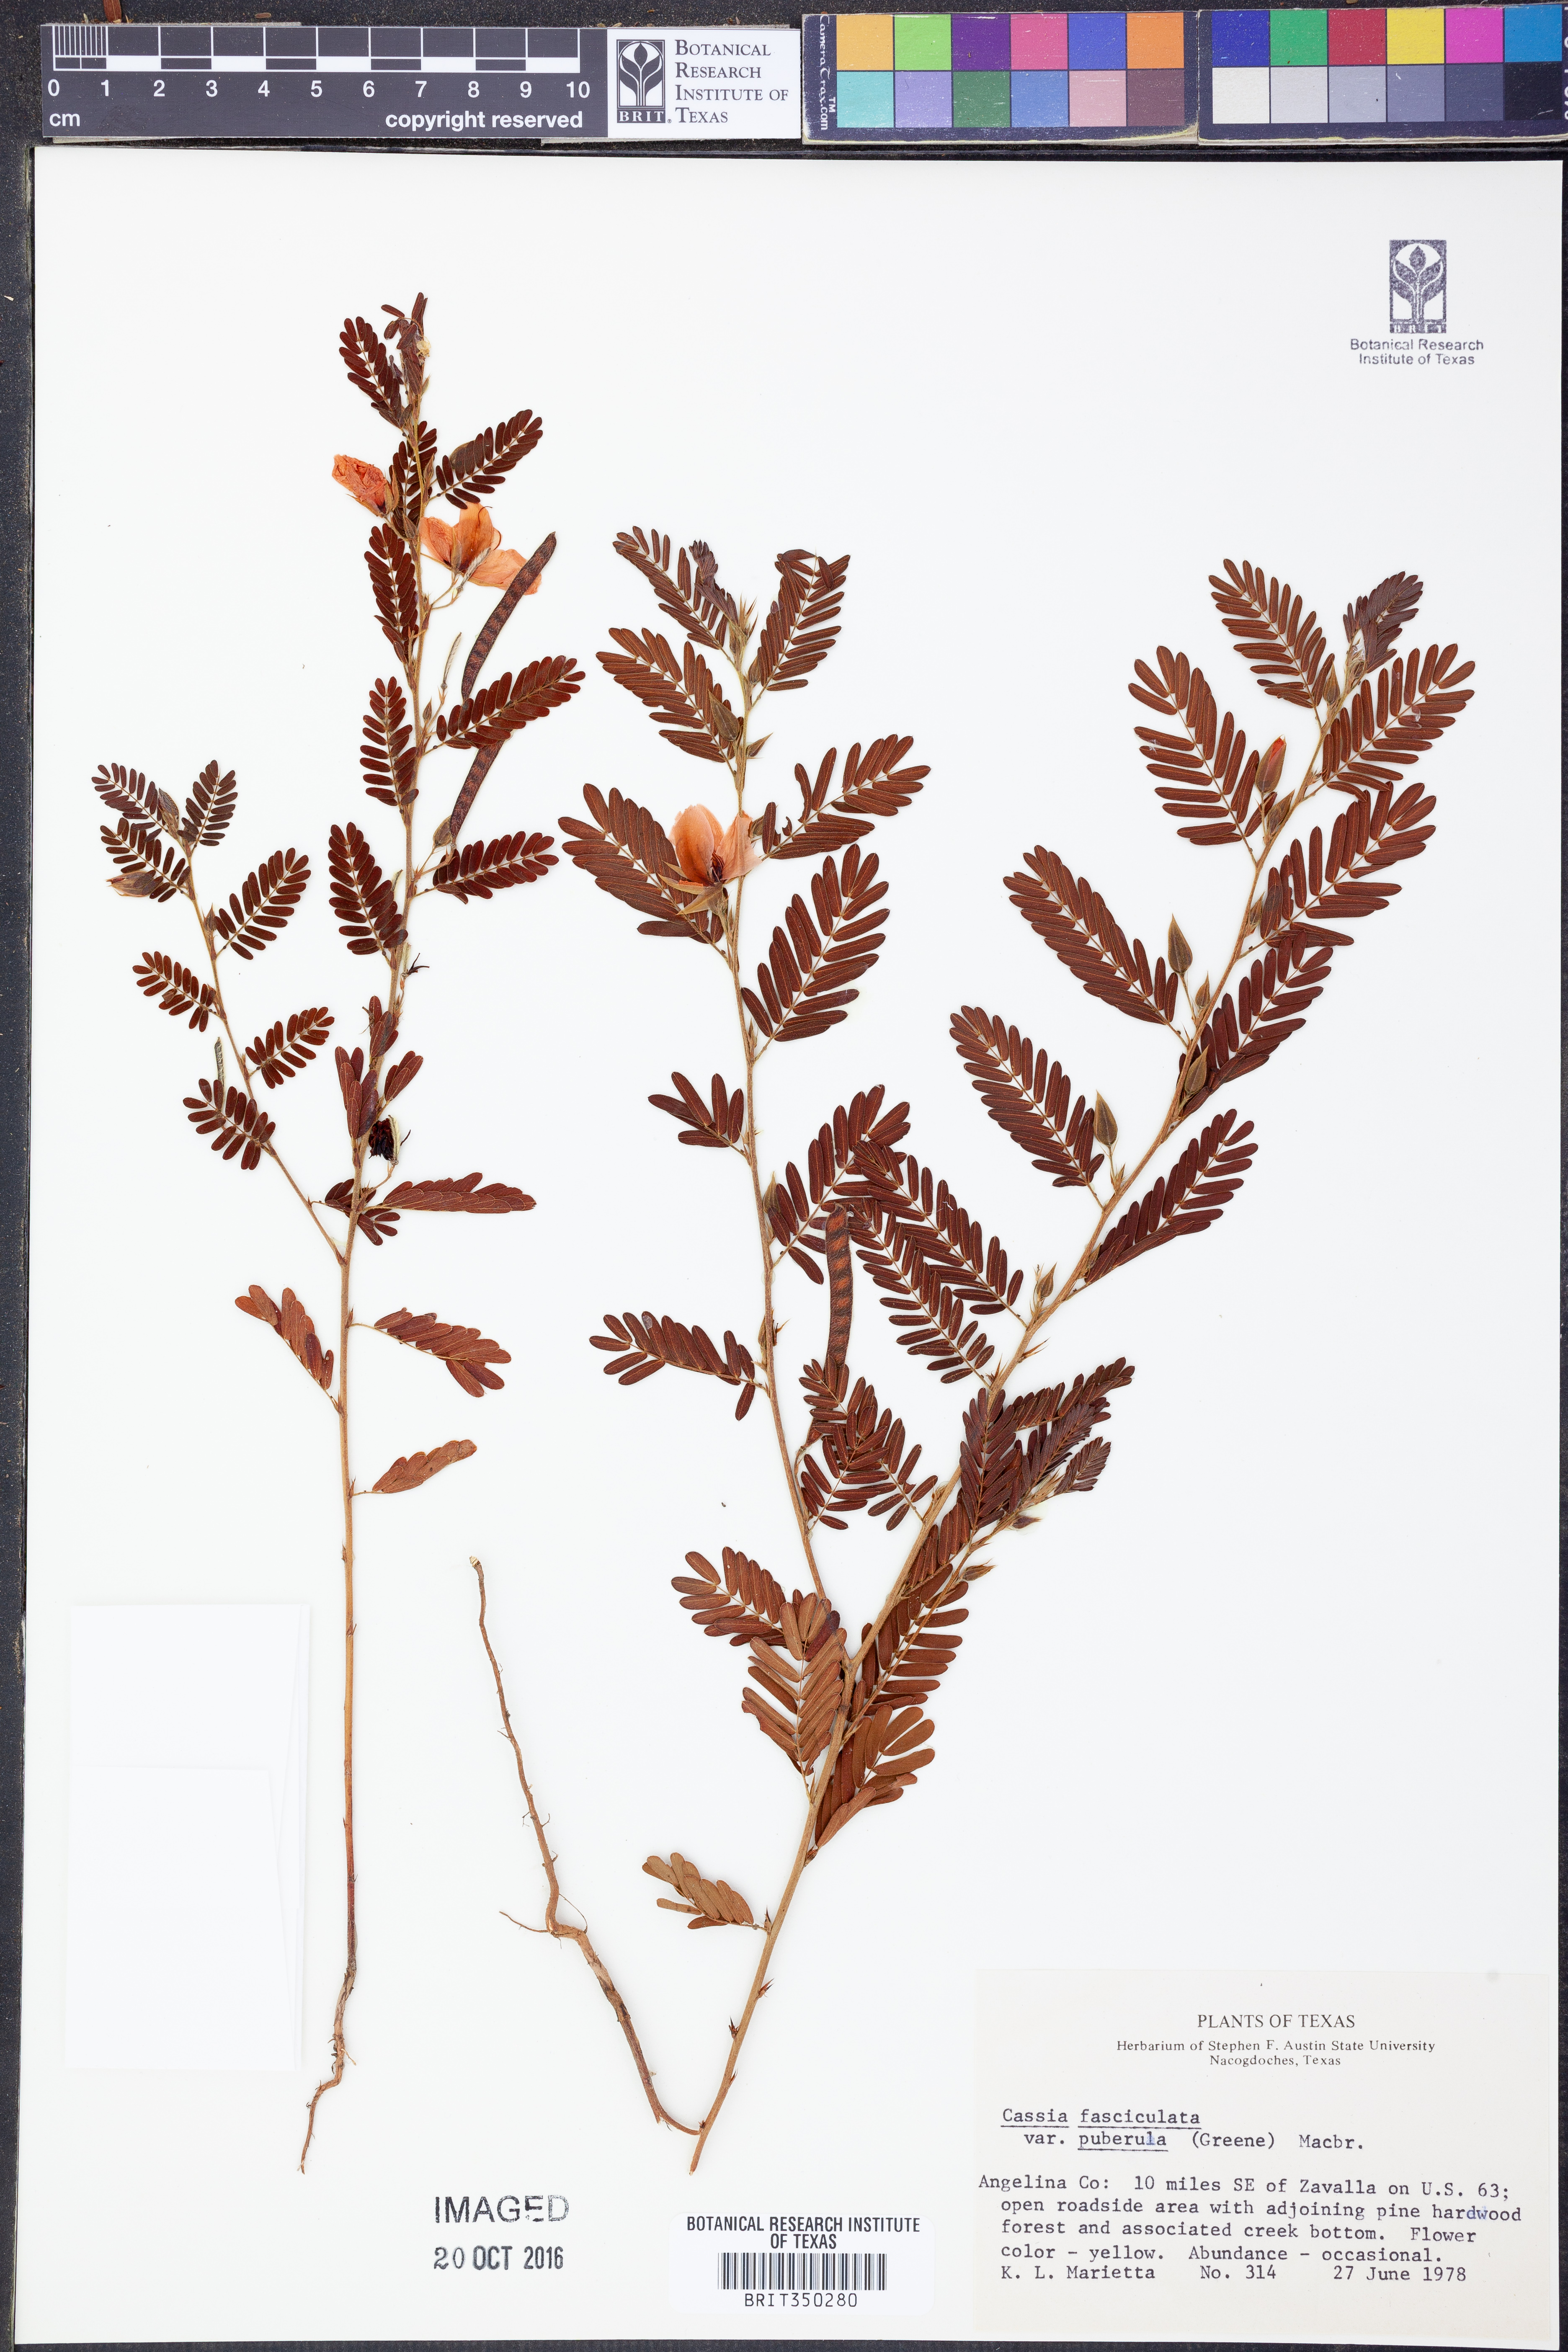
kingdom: Plantae
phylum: Tracheophyta
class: Magnoliopsida
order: Fabales
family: Fabaceae
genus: Chamaecrista
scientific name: Chamaecrista fasciculata
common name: Golden cassia
